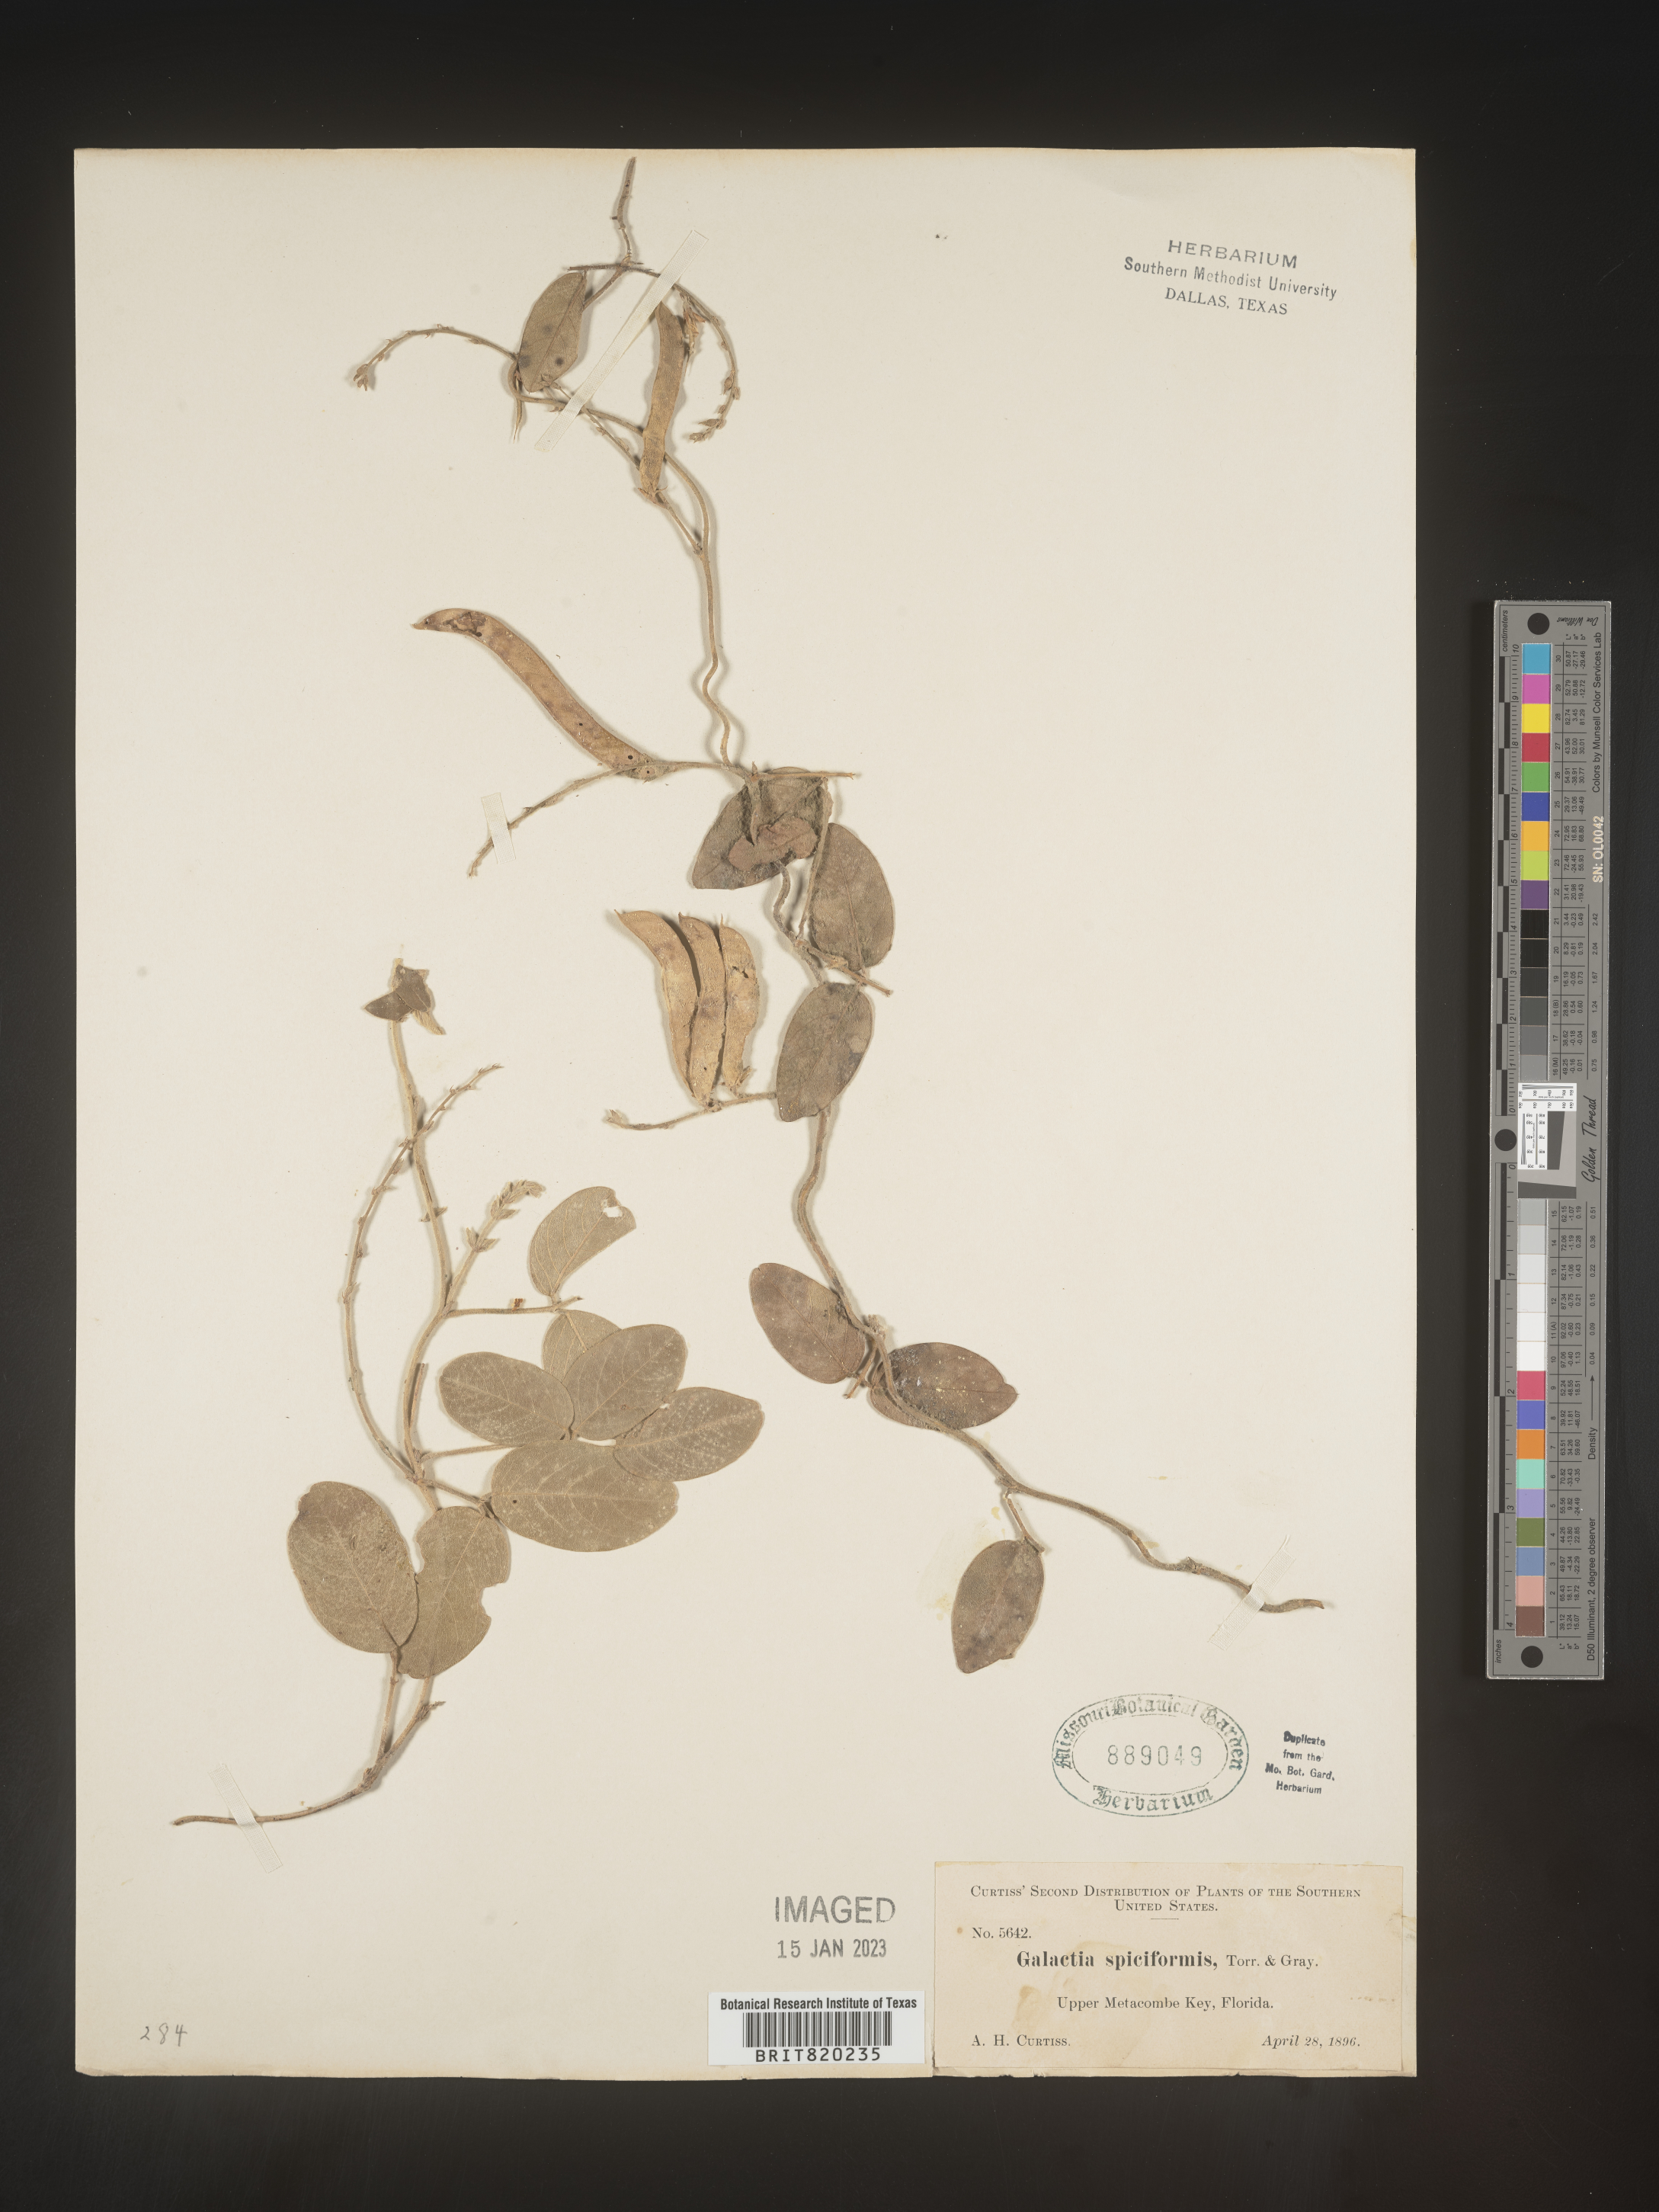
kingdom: Plantae
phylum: Tracheophyta
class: Magnoliopsida
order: Fabales
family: Fabaceae
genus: Galactia
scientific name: Galactia striata
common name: Florida hammock milkpea
